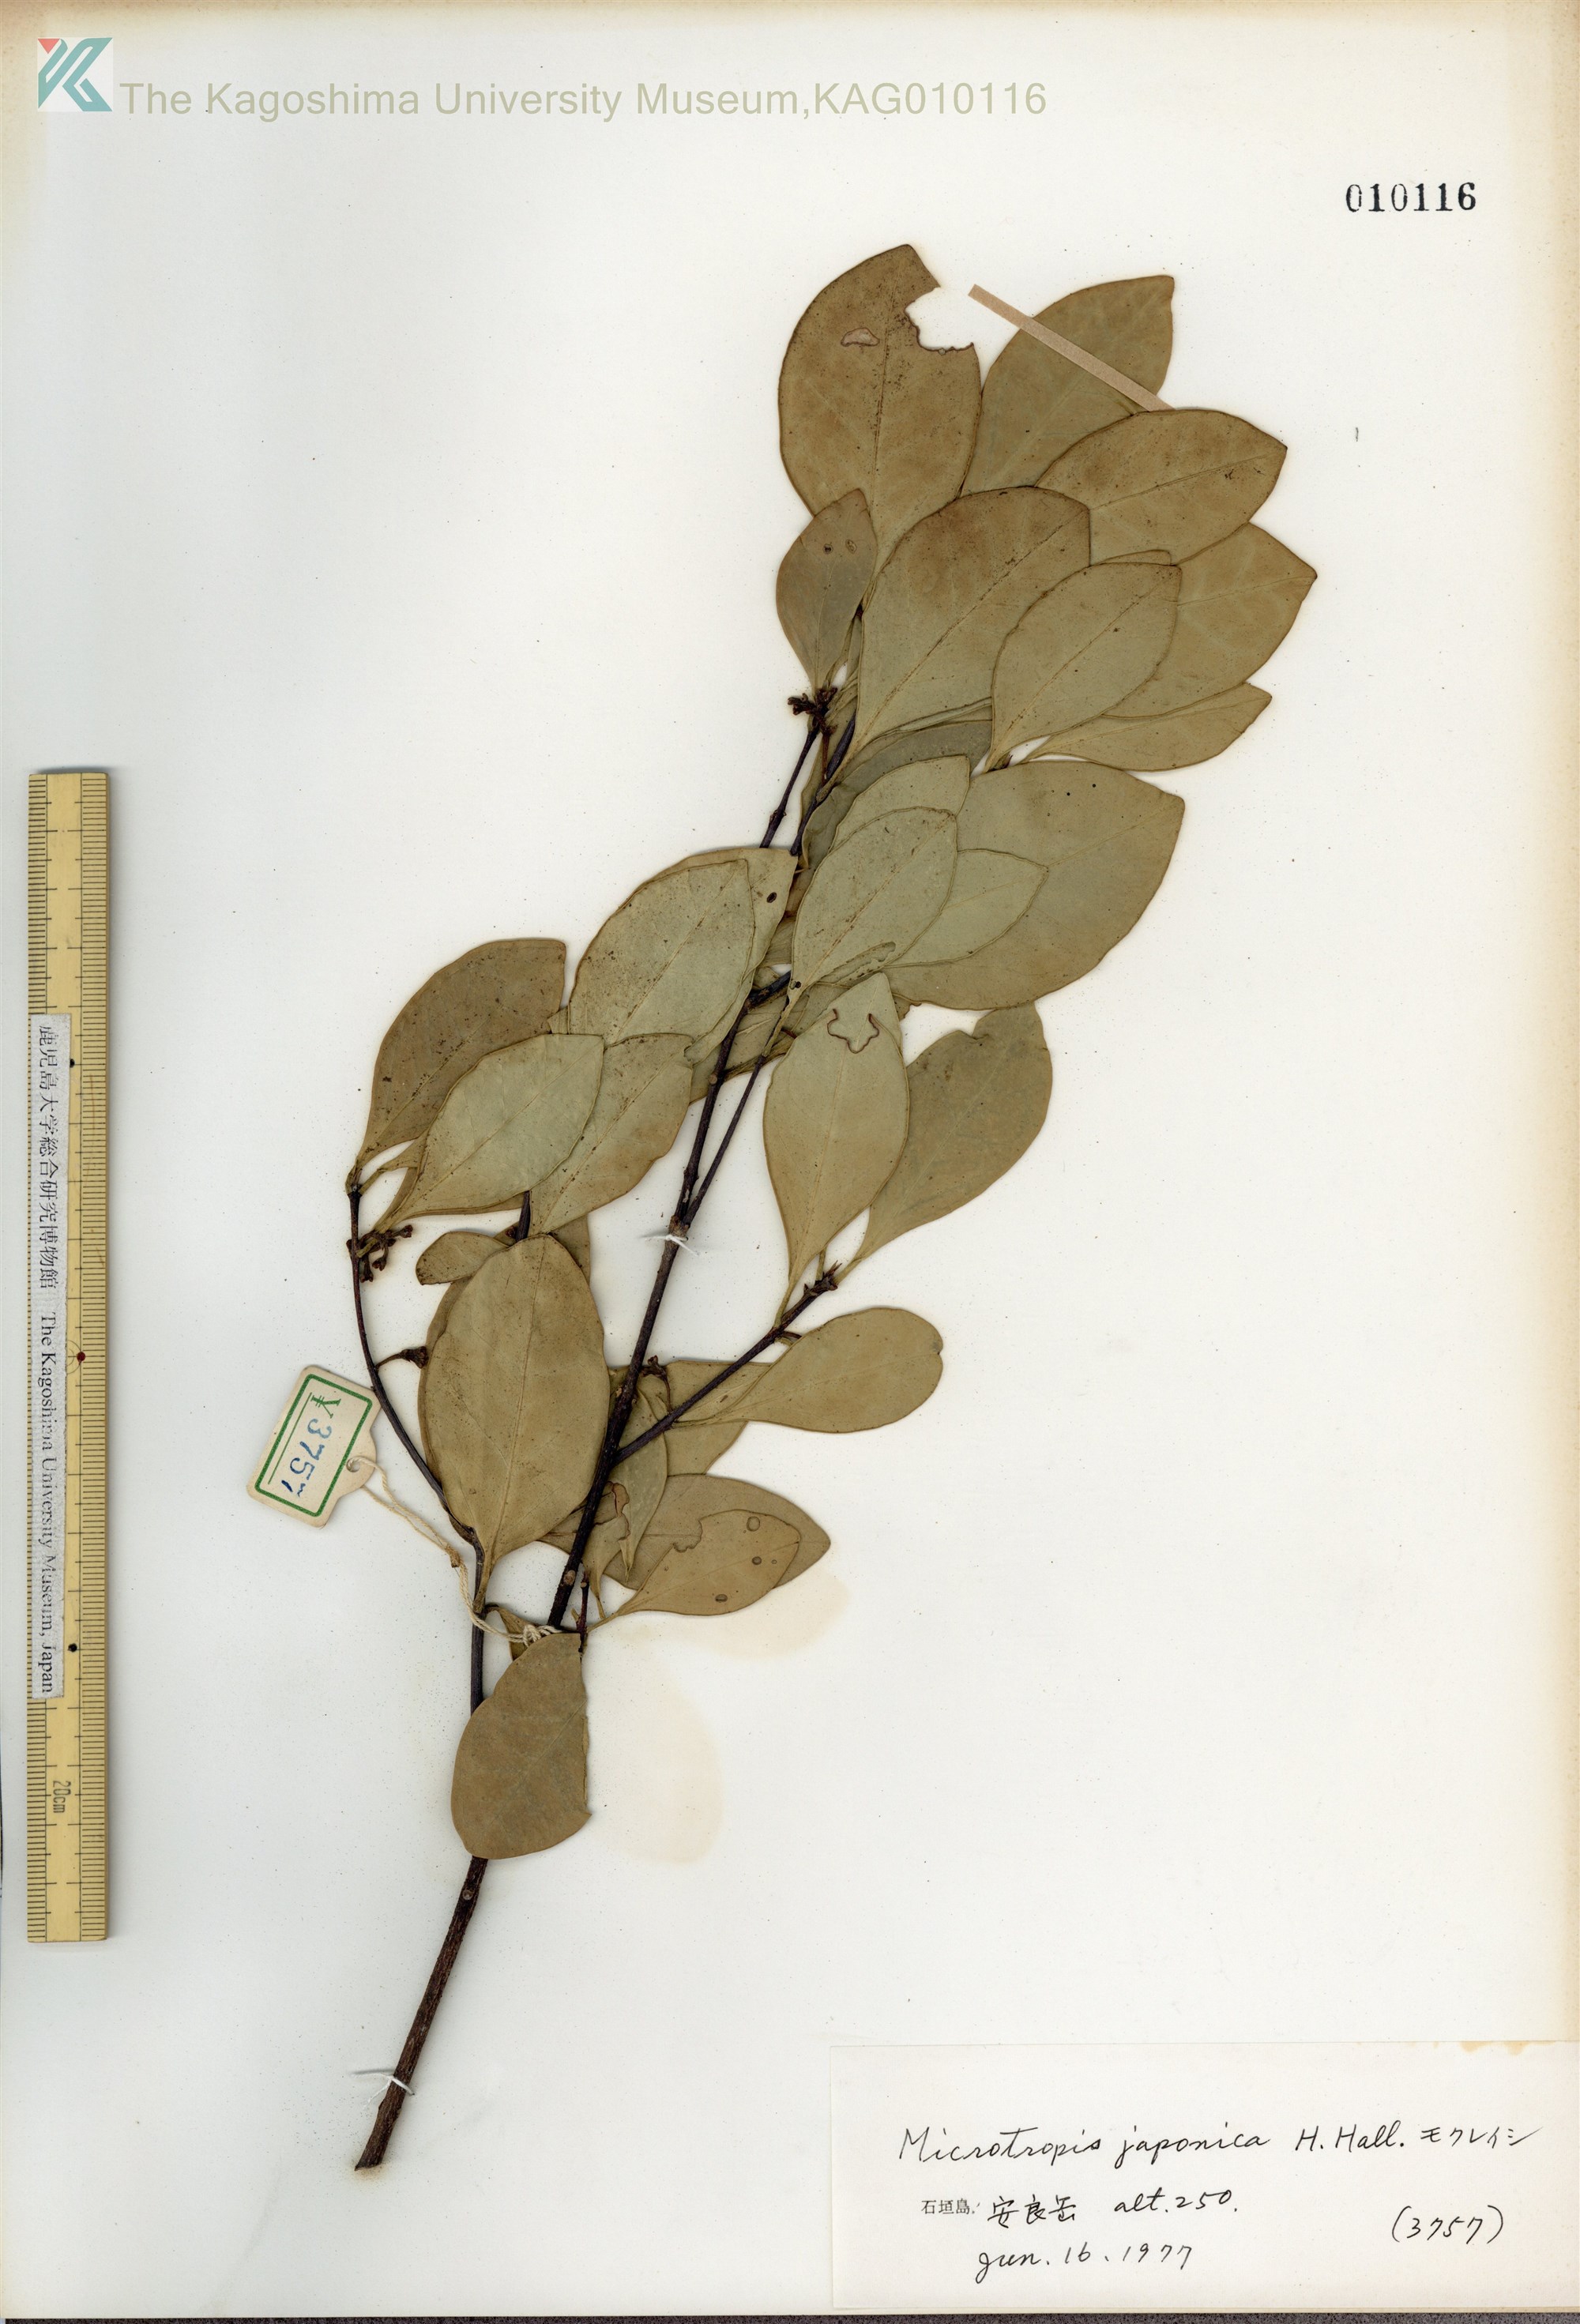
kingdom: Plantae
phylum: Tracheophyta
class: Magnoliopsida
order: Celastrales
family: Celastraceae
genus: Microtropis
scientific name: Microtropis japonica
